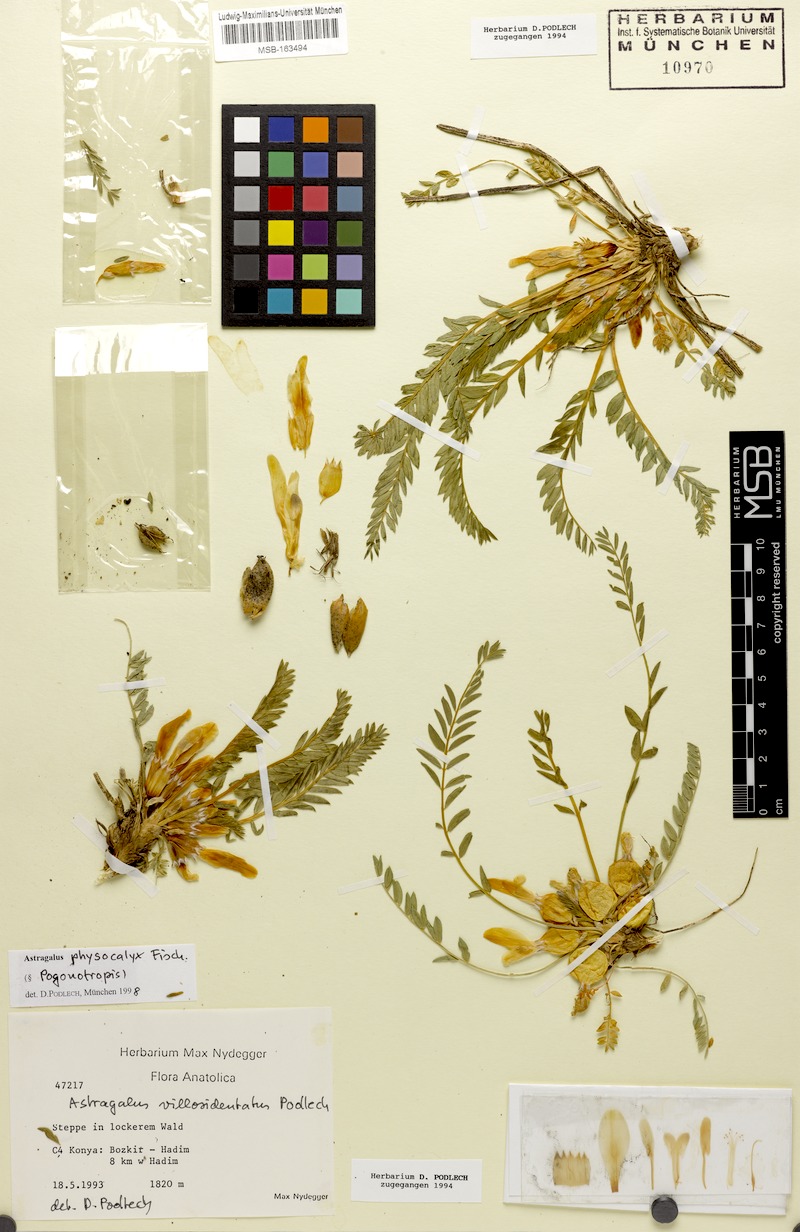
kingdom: Plantae
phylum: Tracheophyta
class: Magnoliopsida
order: Fabales
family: Fabaceae
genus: Astragalus
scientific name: Astragalus physocalyx
